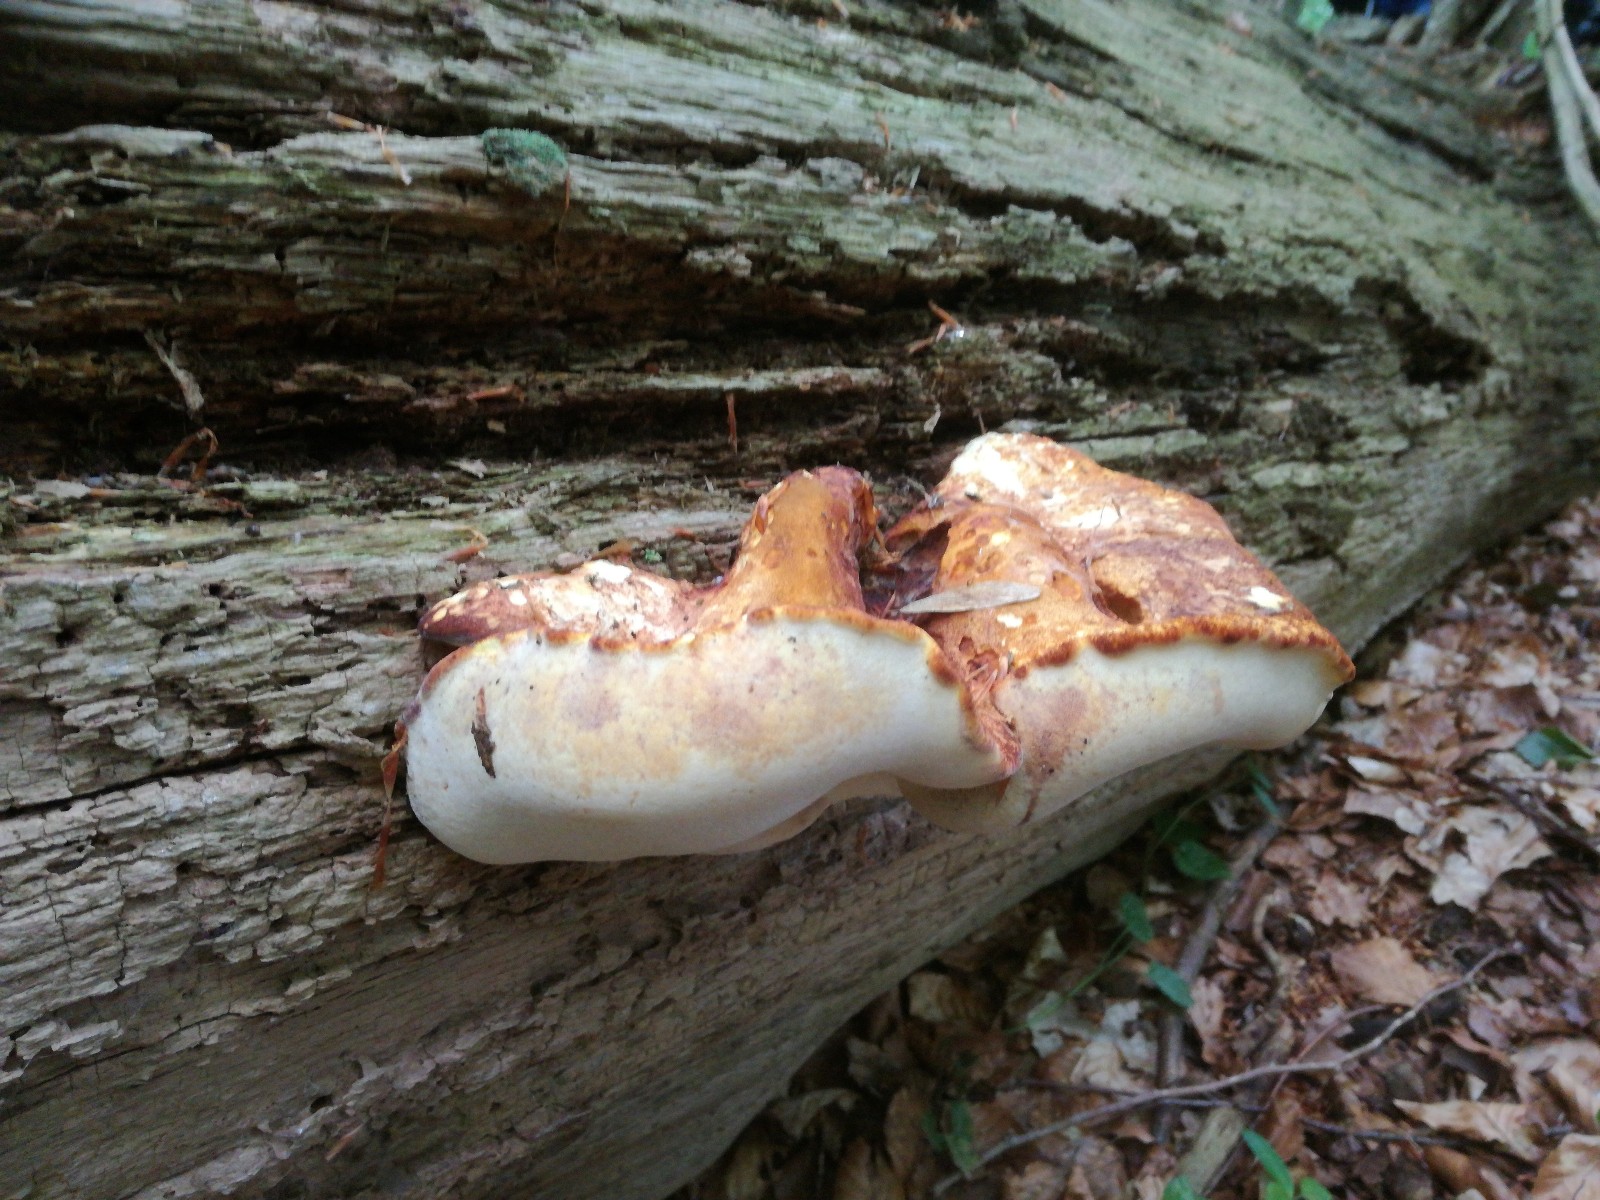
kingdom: Fungi
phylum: Basidiomycota
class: Agaricomycetes
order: Polyporales
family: Fomitopsidaceae
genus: Buglossoporus
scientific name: Buglossoporus quercinus
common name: egetunge
